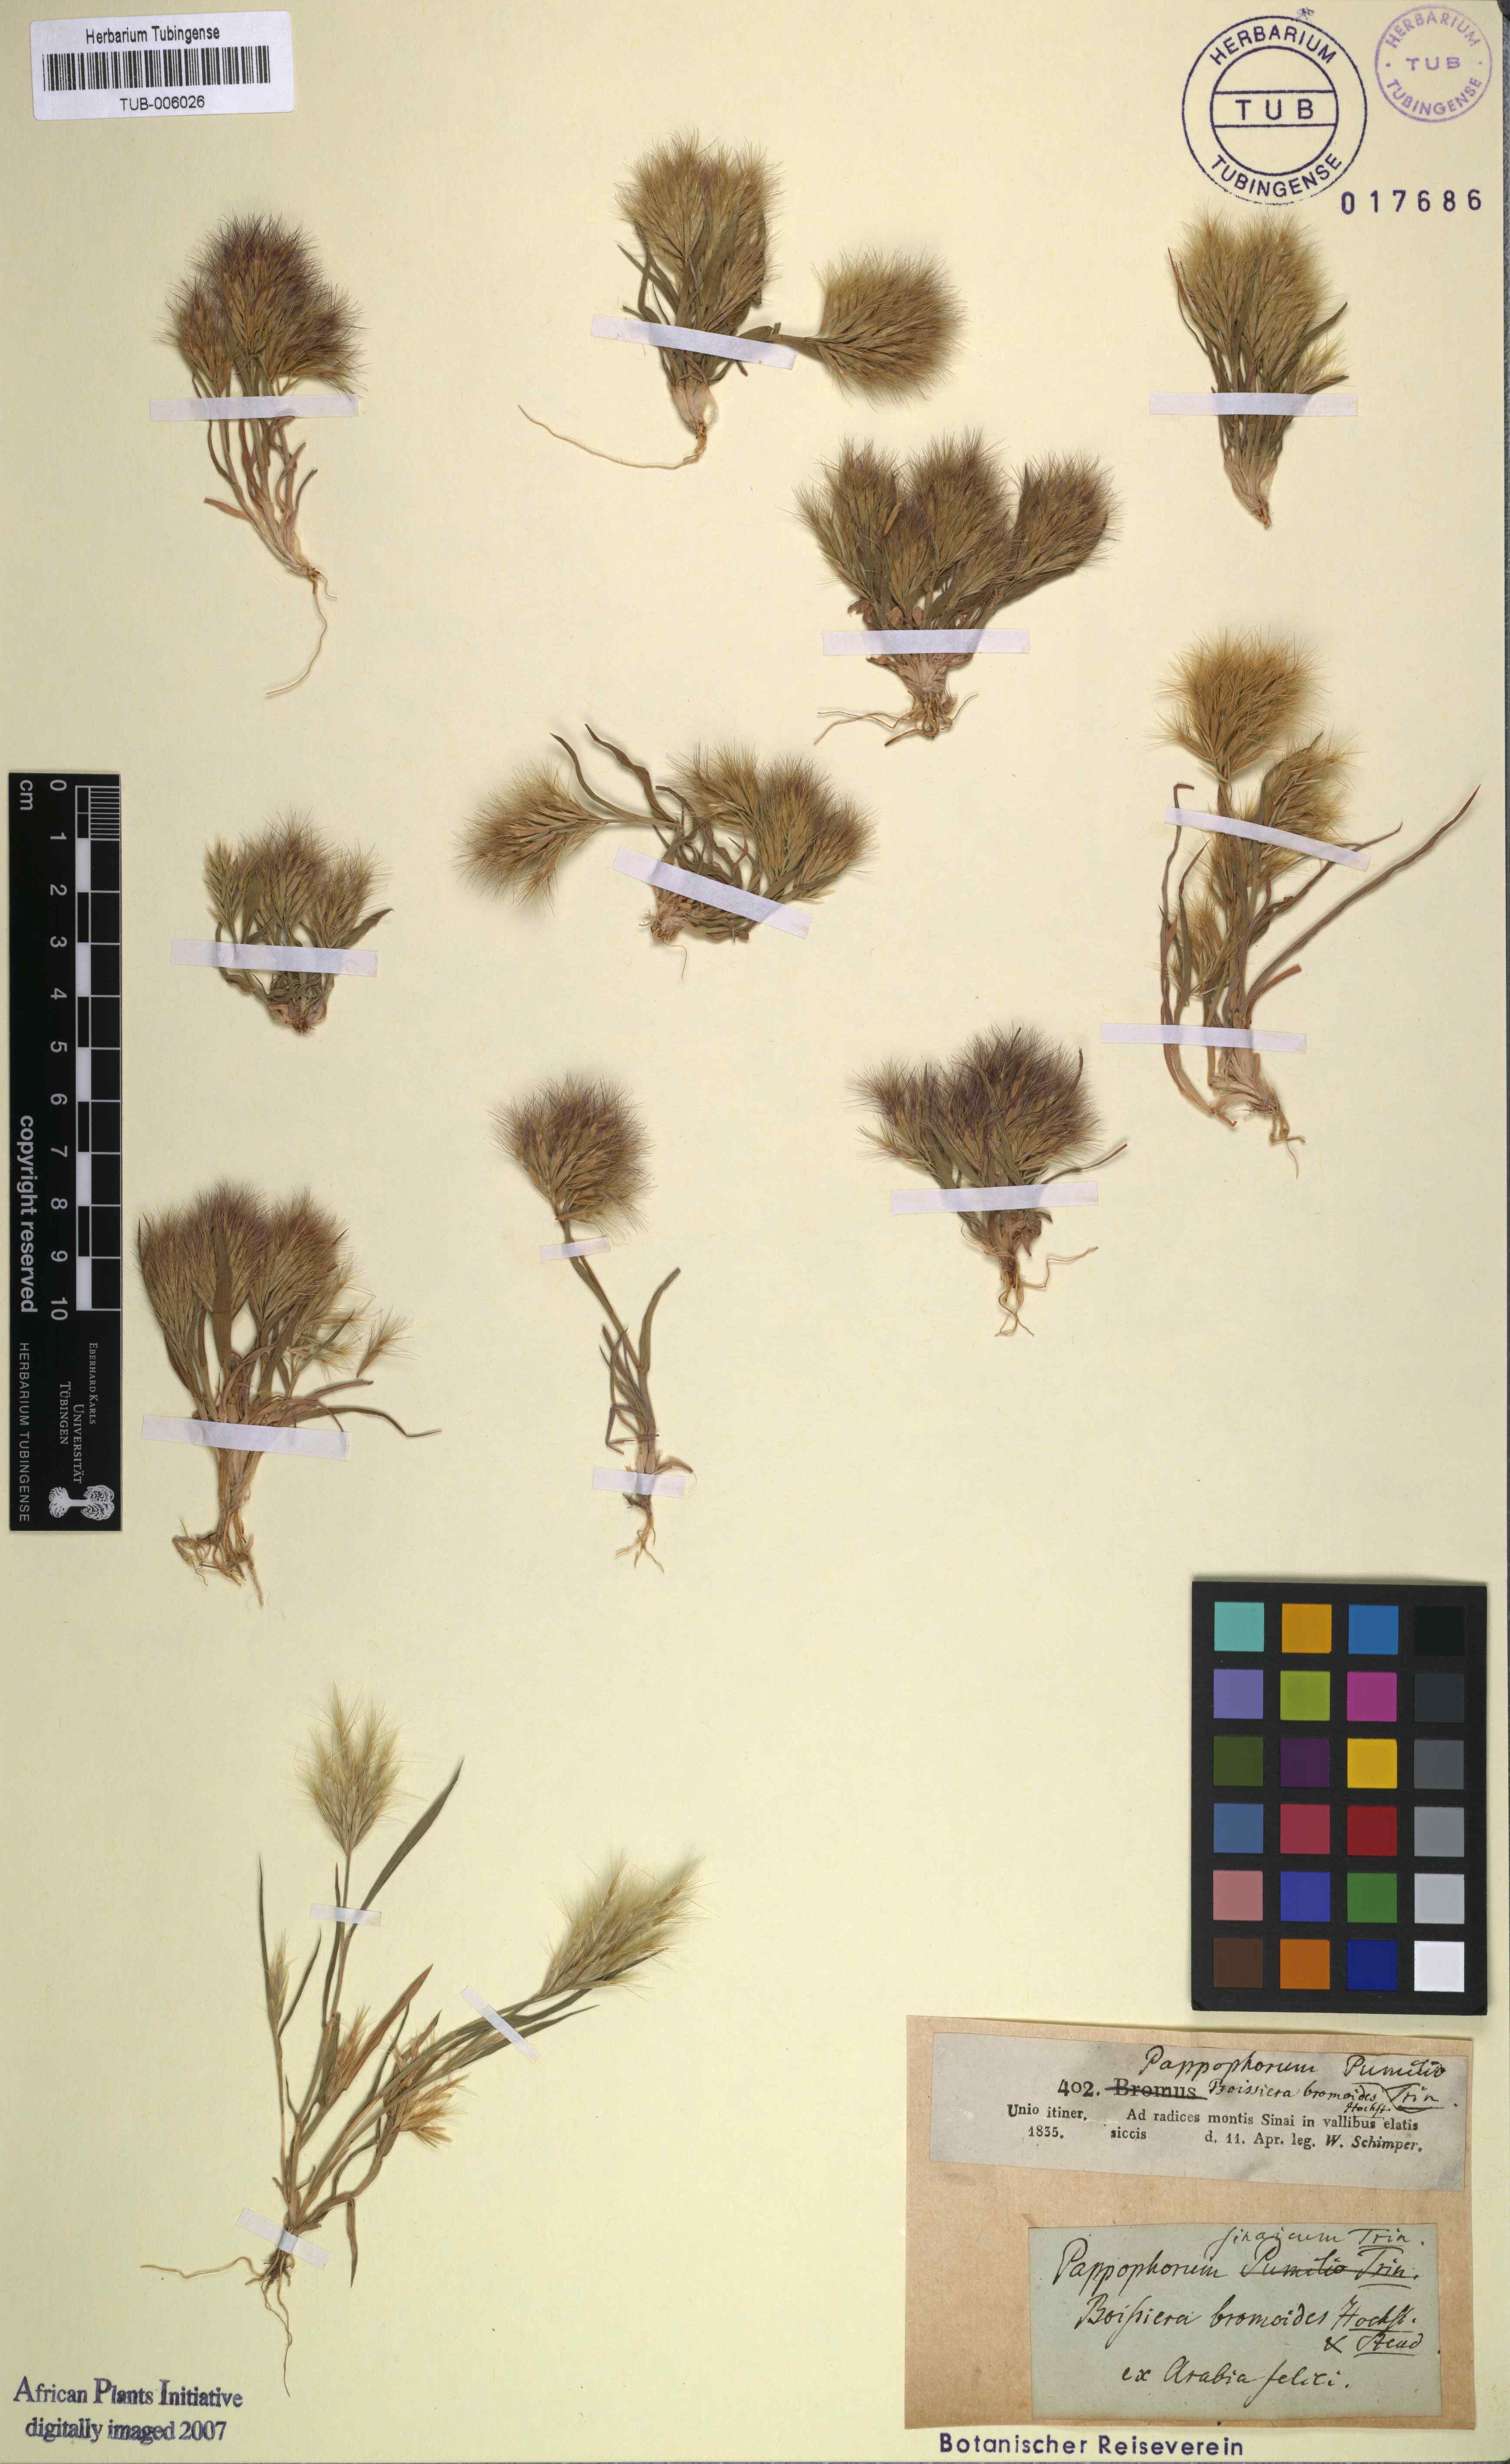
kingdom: Plantae
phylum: Tracheophyta
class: Liliopsida
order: Poales
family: Poaceae
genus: Bromus
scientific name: Bromus pumilio
